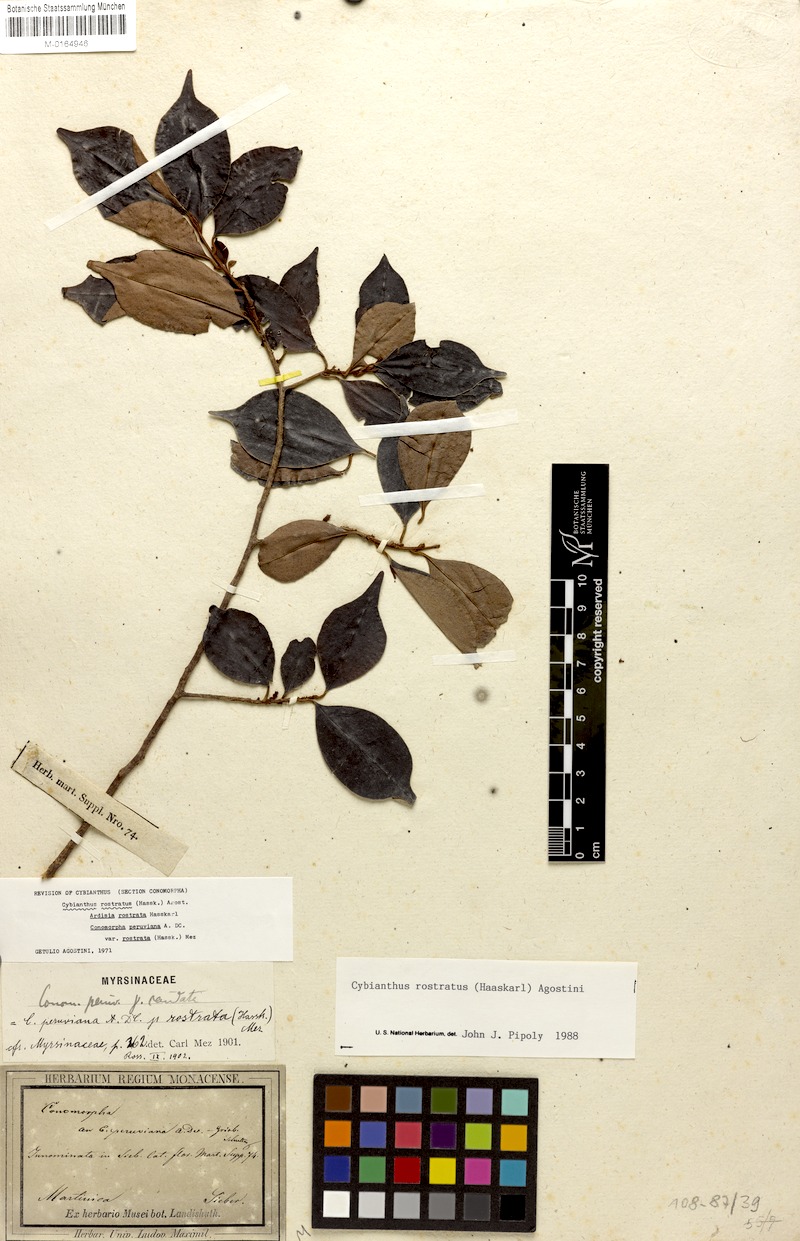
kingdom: Plantae
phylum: Tracheophyta
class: Magnoliopsida
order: Ericales
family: Primulaceae
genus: Cybianthus
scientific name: Cybianthus rostratus
